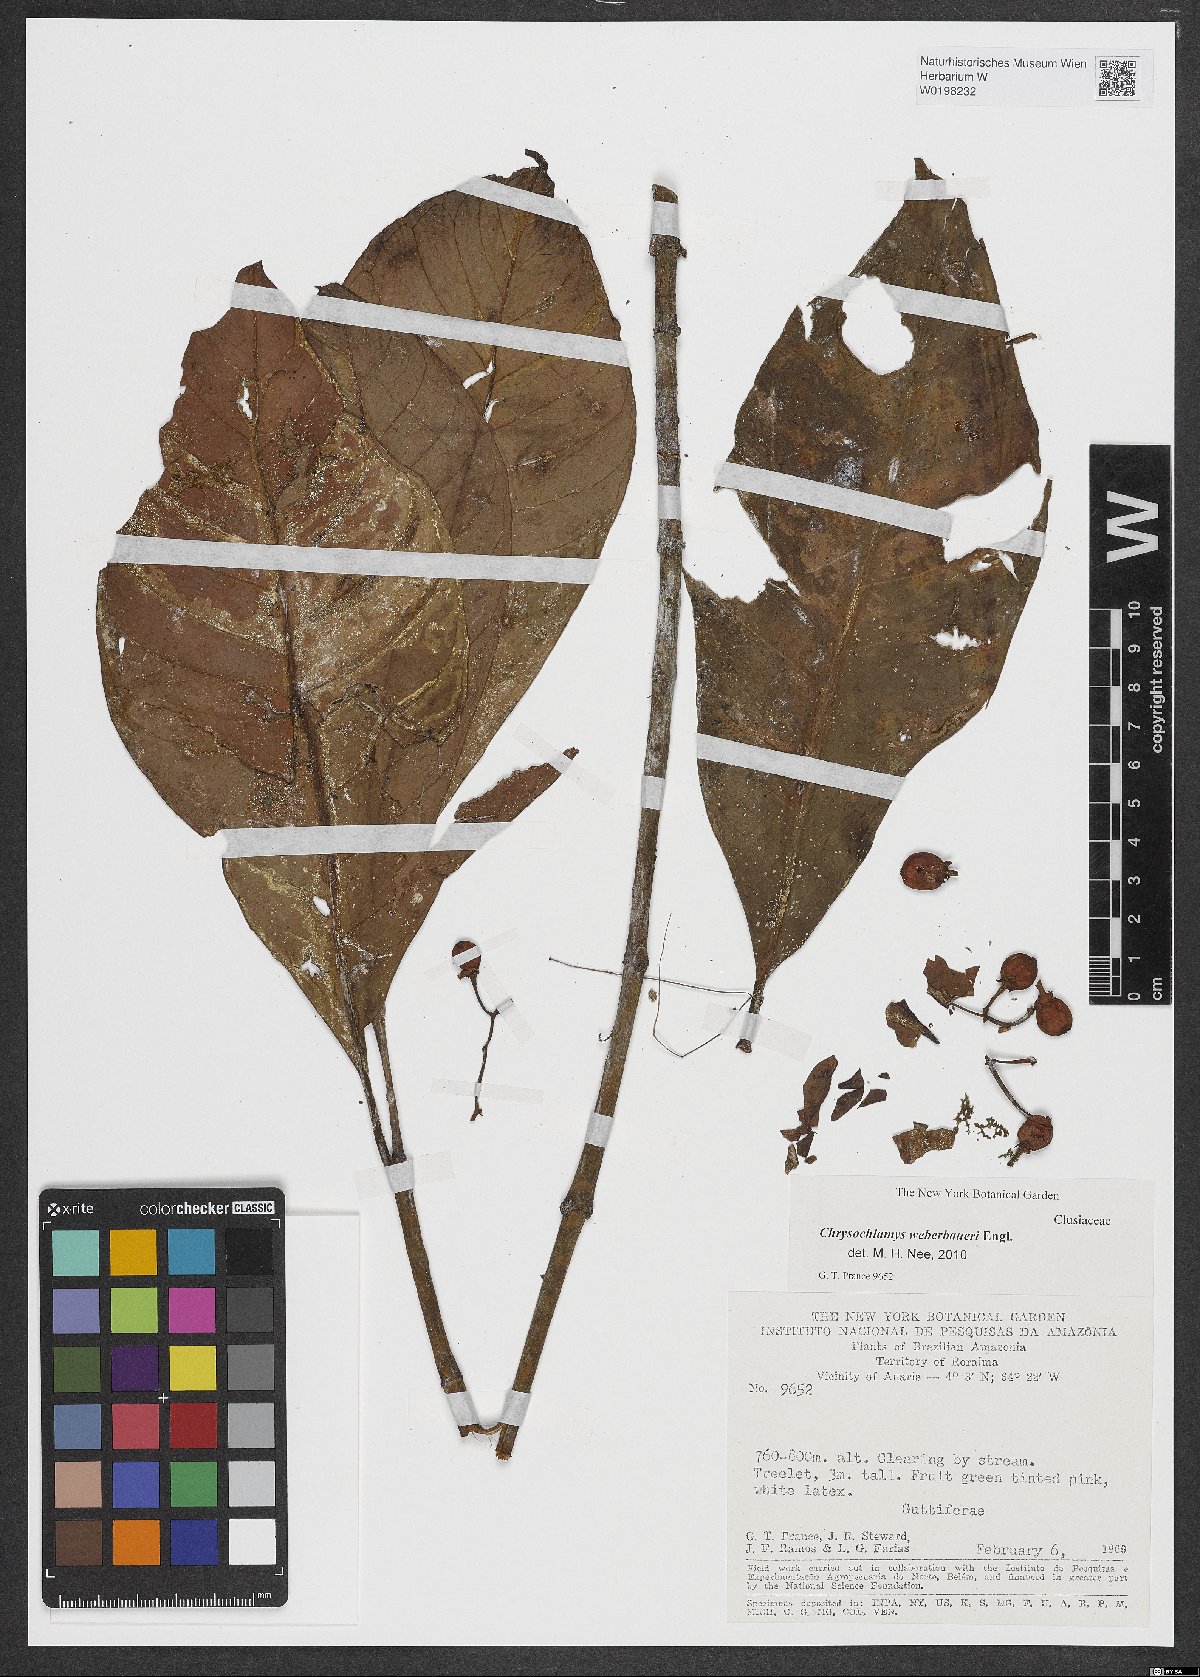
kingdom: Plantae
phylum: Tracheophyta
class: Magnoliopsida
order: Malpighiales
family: Clusiaceae
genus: Chrysochlamys
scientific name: Chrysochlamys weberbaueri
